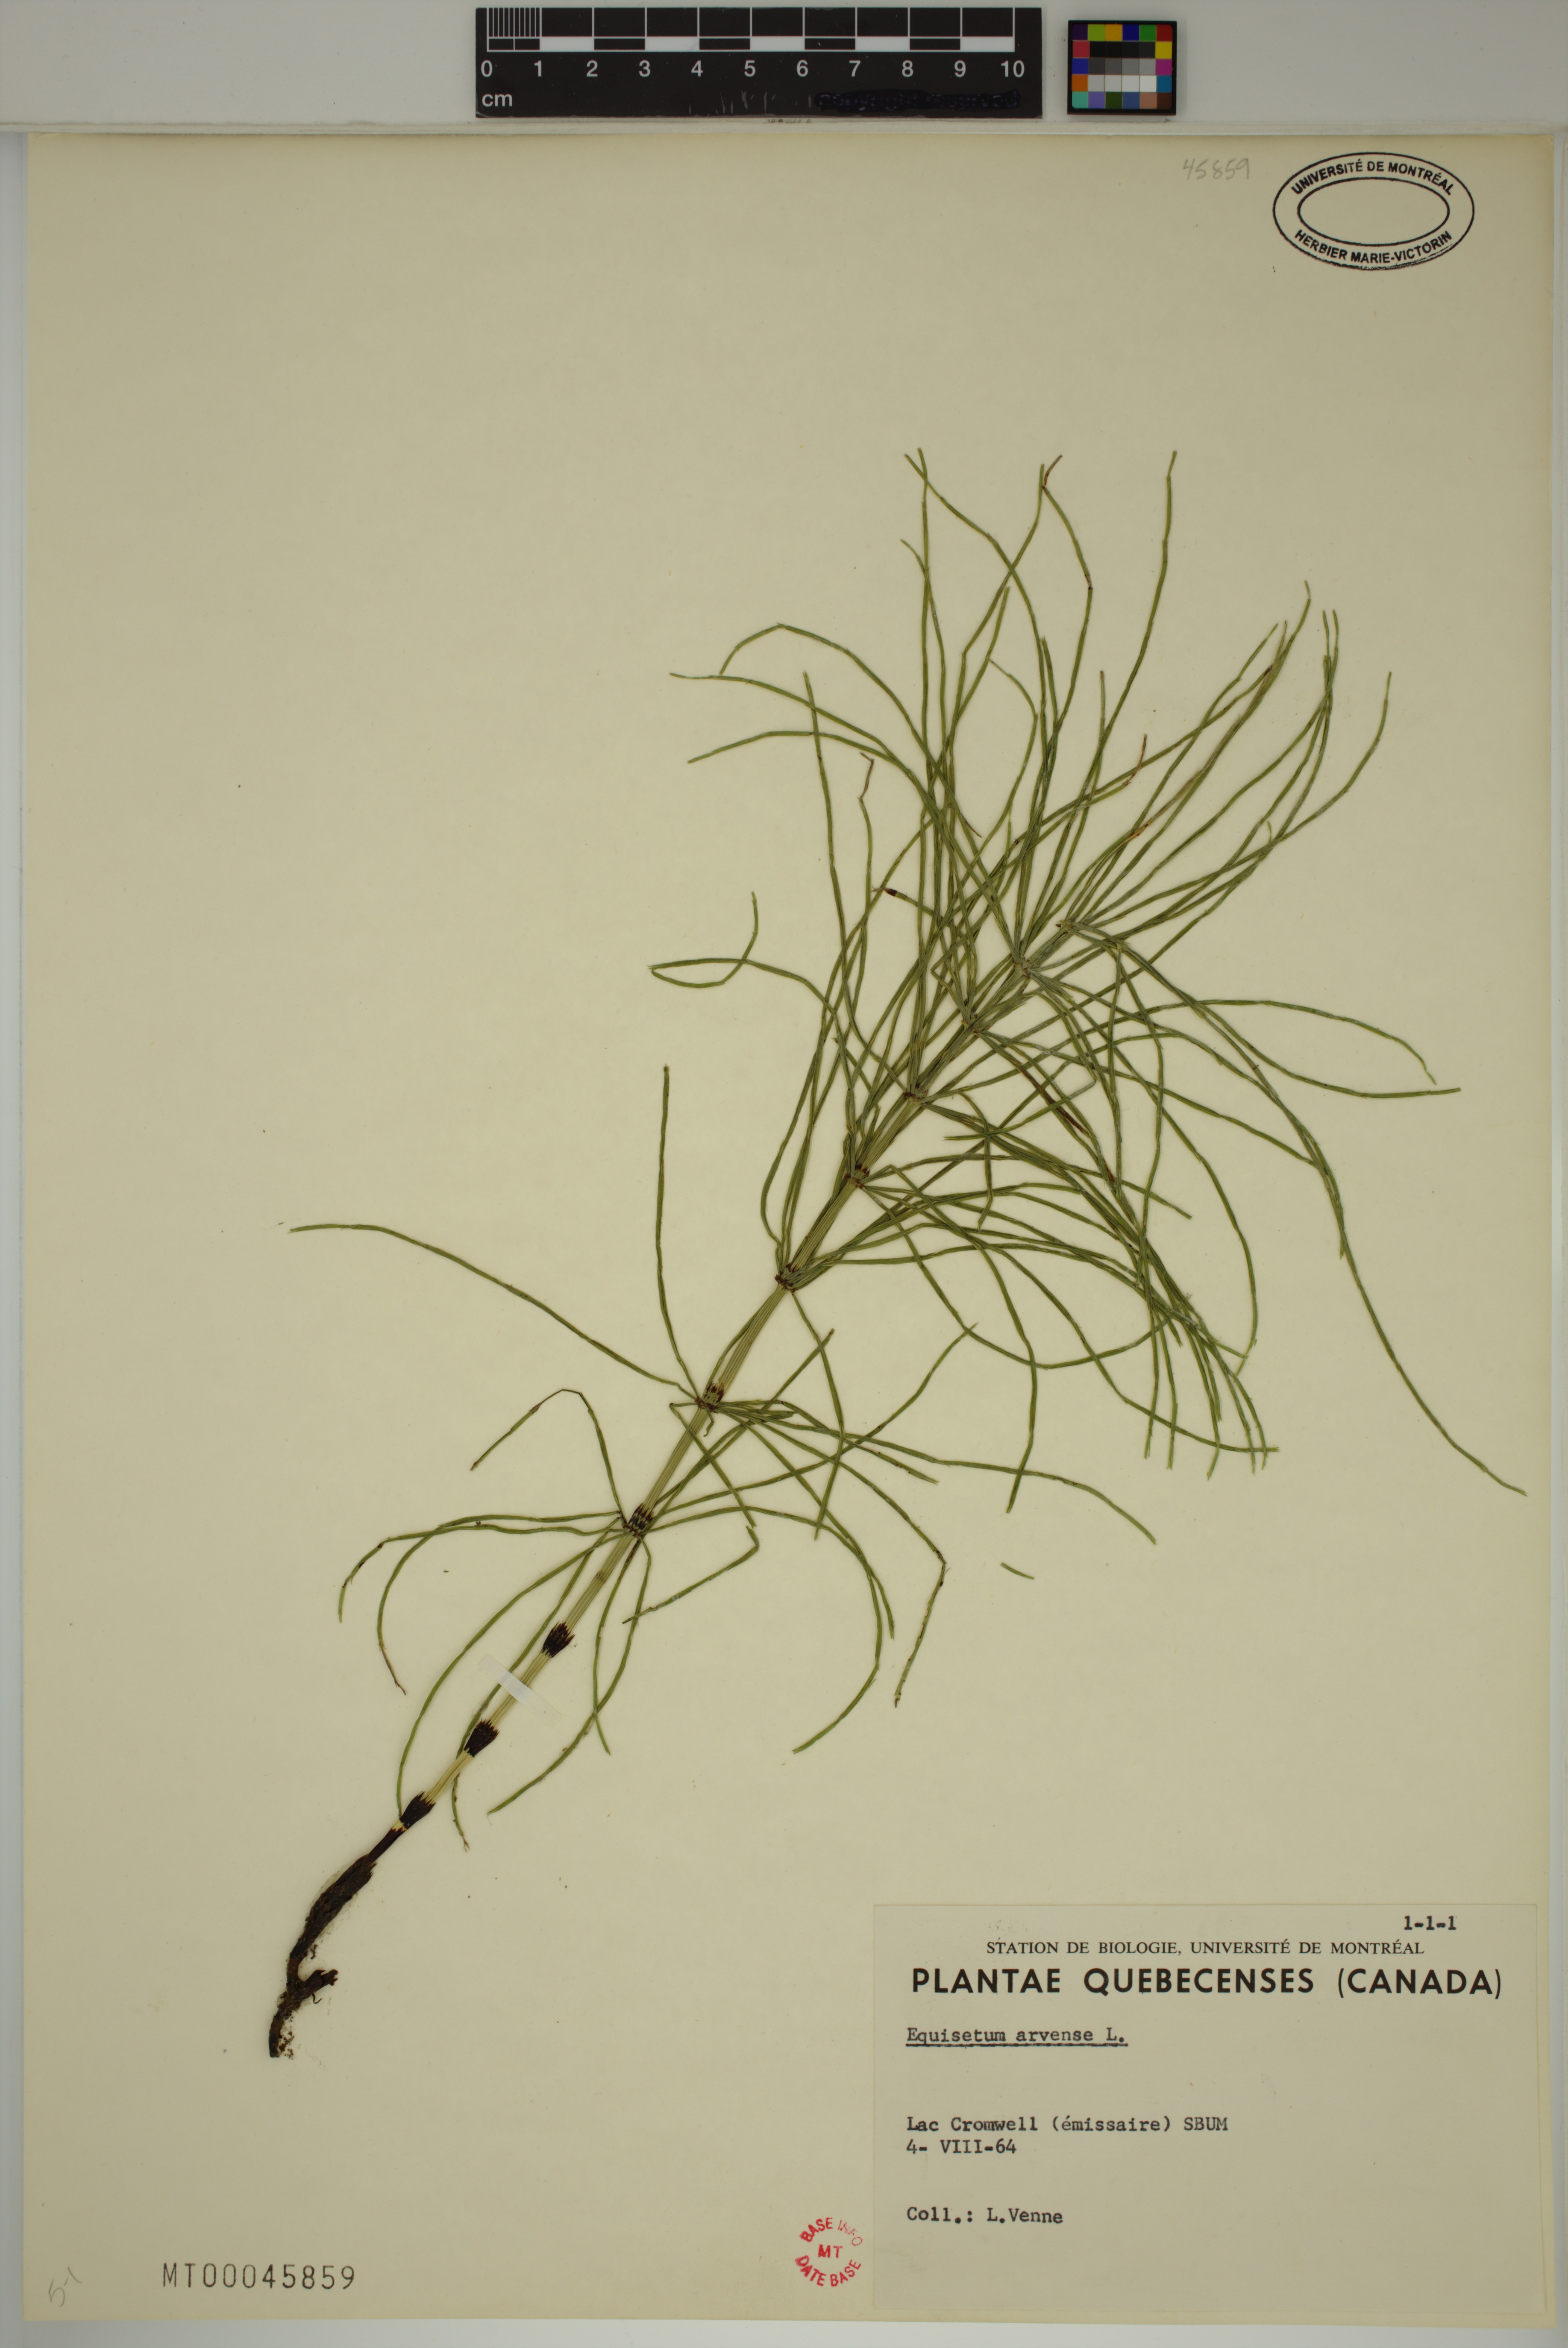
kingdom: Plantae
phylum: Tracheophyta
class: Polypodiopsida
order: Equisetales
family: Equisetaceae
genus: Equisetum
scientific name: Equisetum arvense
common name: Field horsetail
